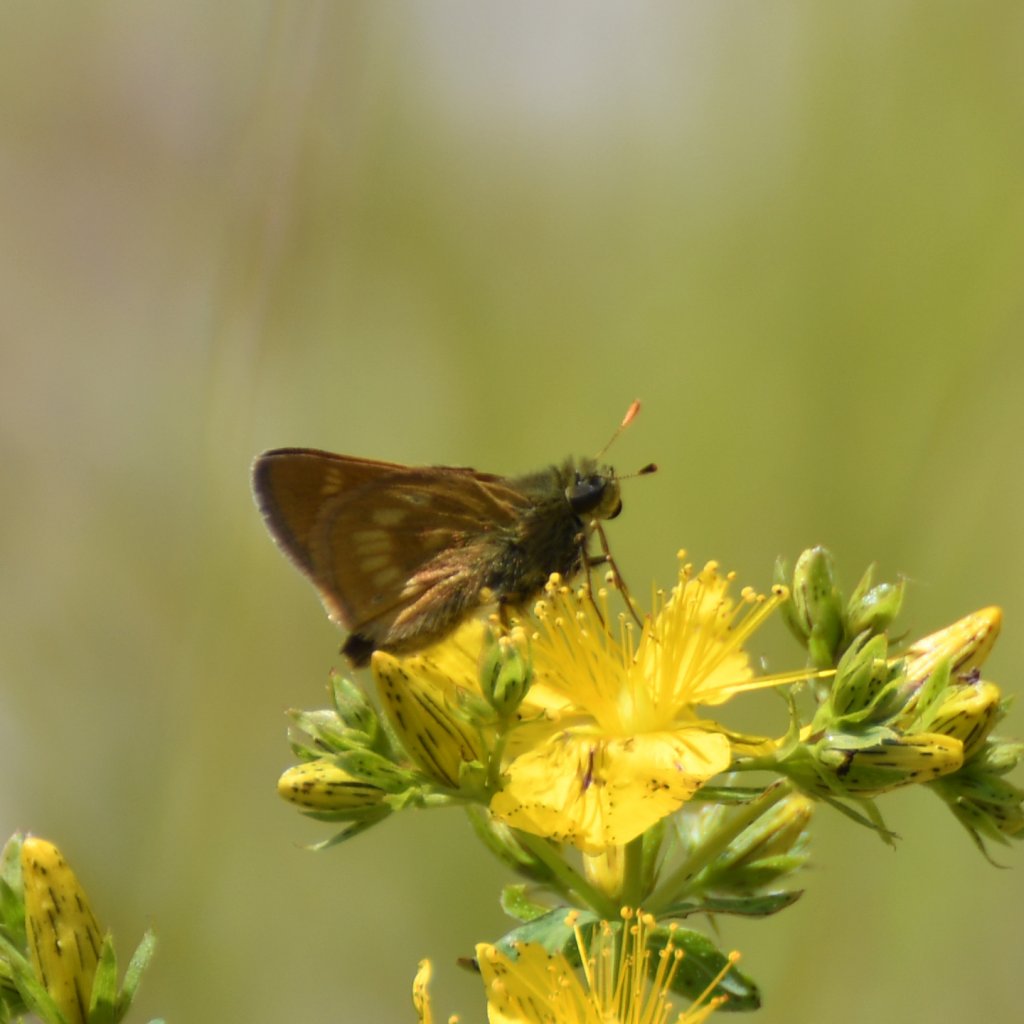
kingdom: Animalia
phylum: Arthropoda
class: Insecta
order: Lepidoptera
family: Hesperiidae
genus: Hesperia
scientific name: Hesperia sassacus
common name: Sassacus Skipper
